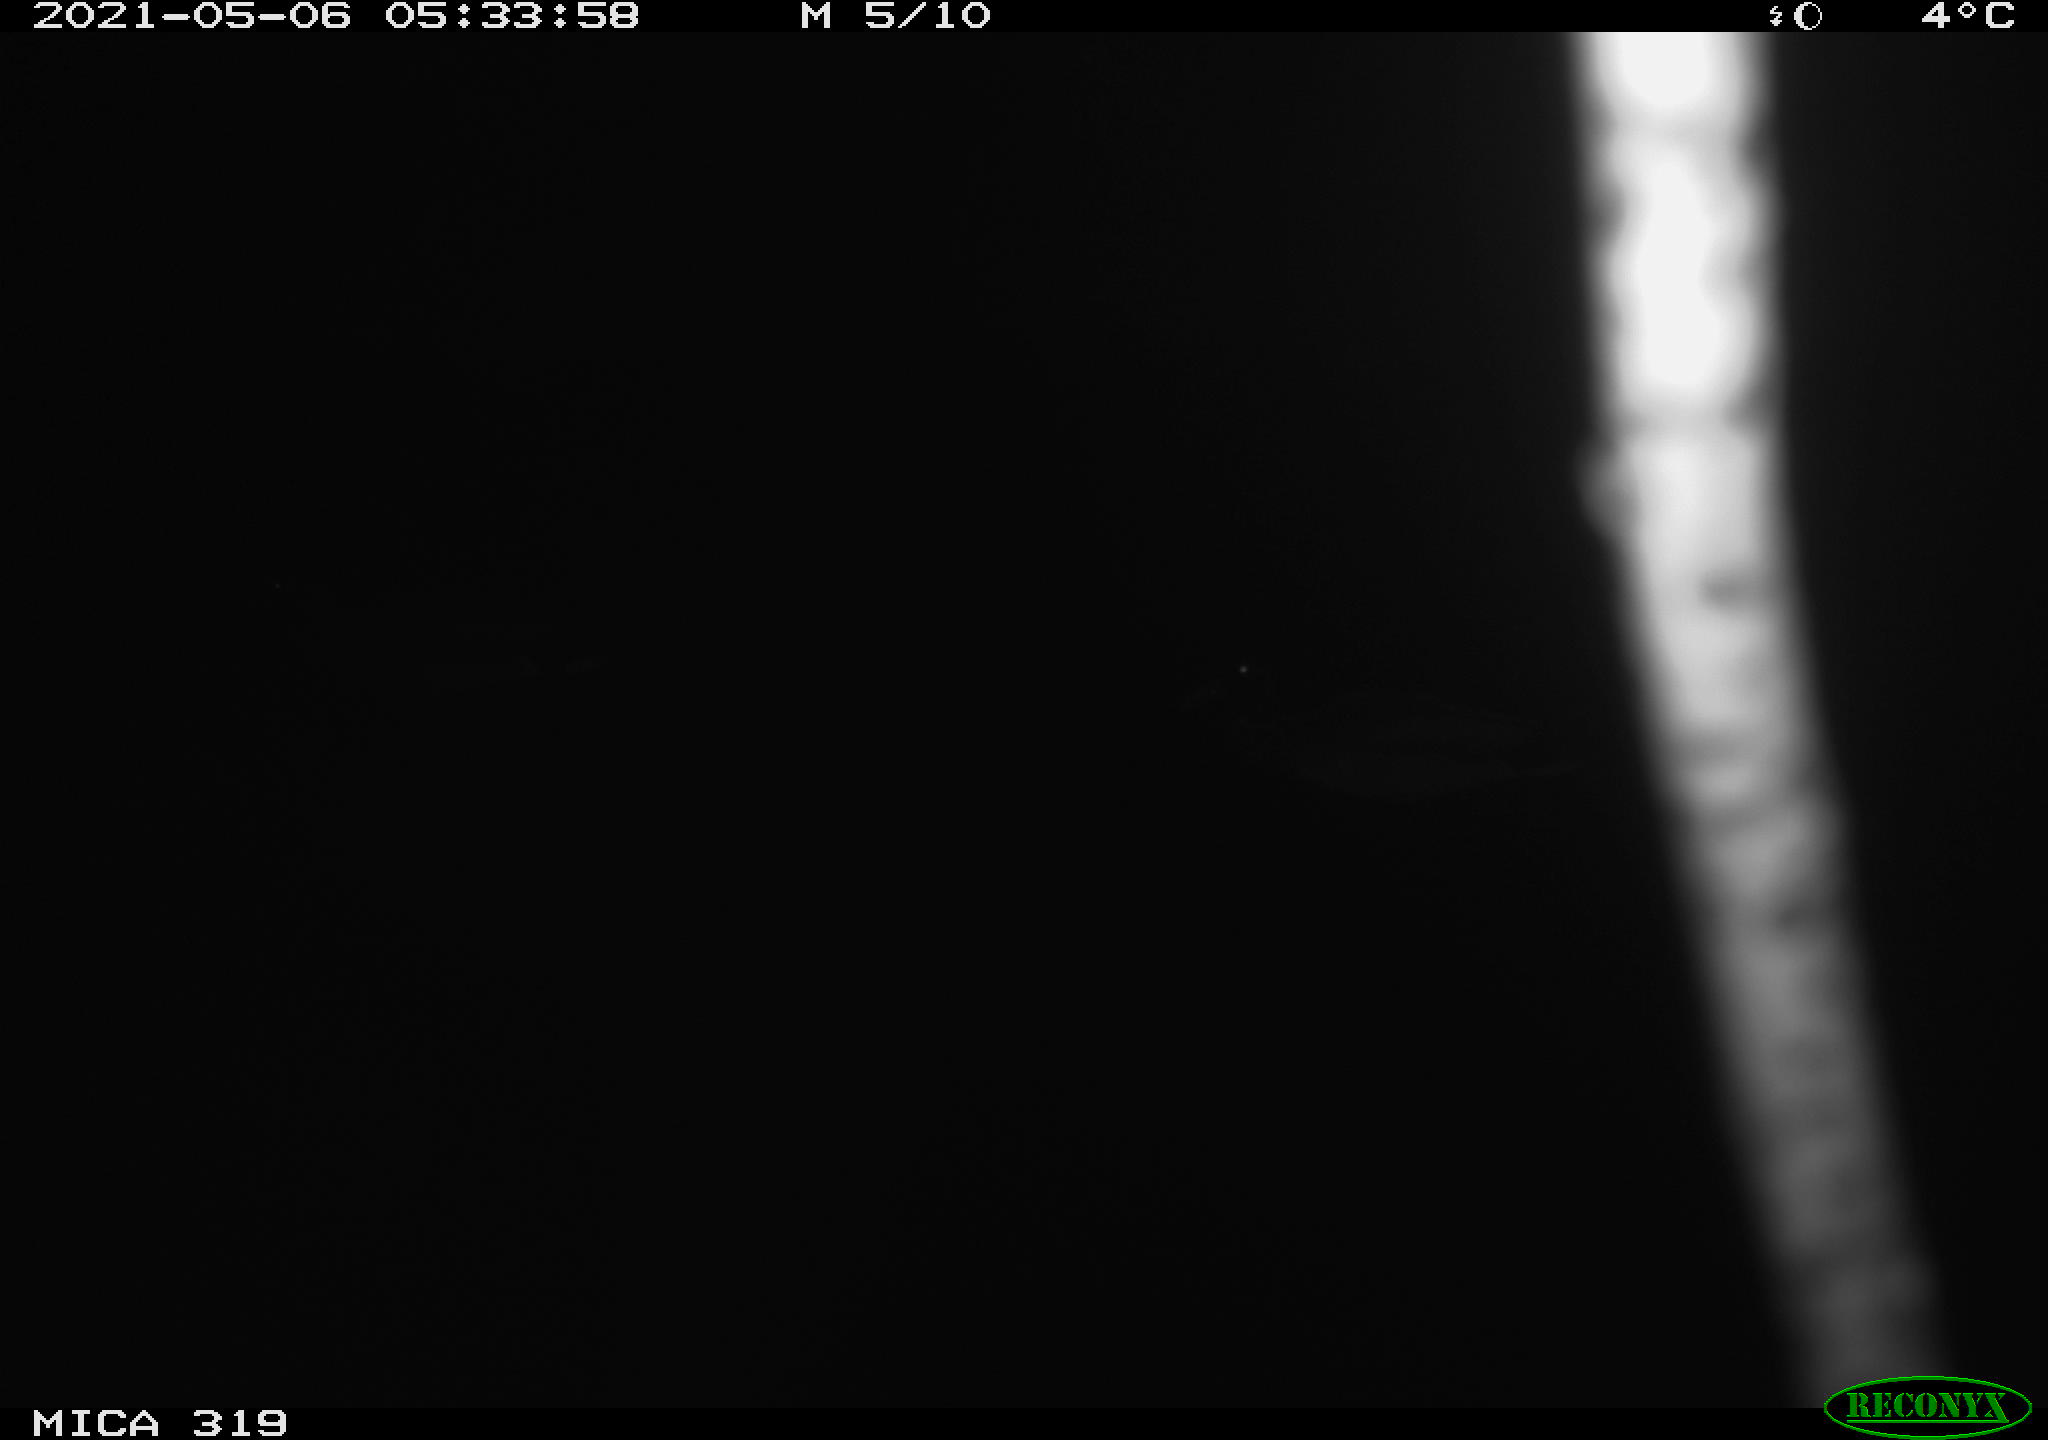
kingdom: Animalia
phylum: Chordata
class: Aves
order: Anseriformes
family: Anatidae
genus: Anas
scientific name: Anas platyrhynchos
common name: Mallard
